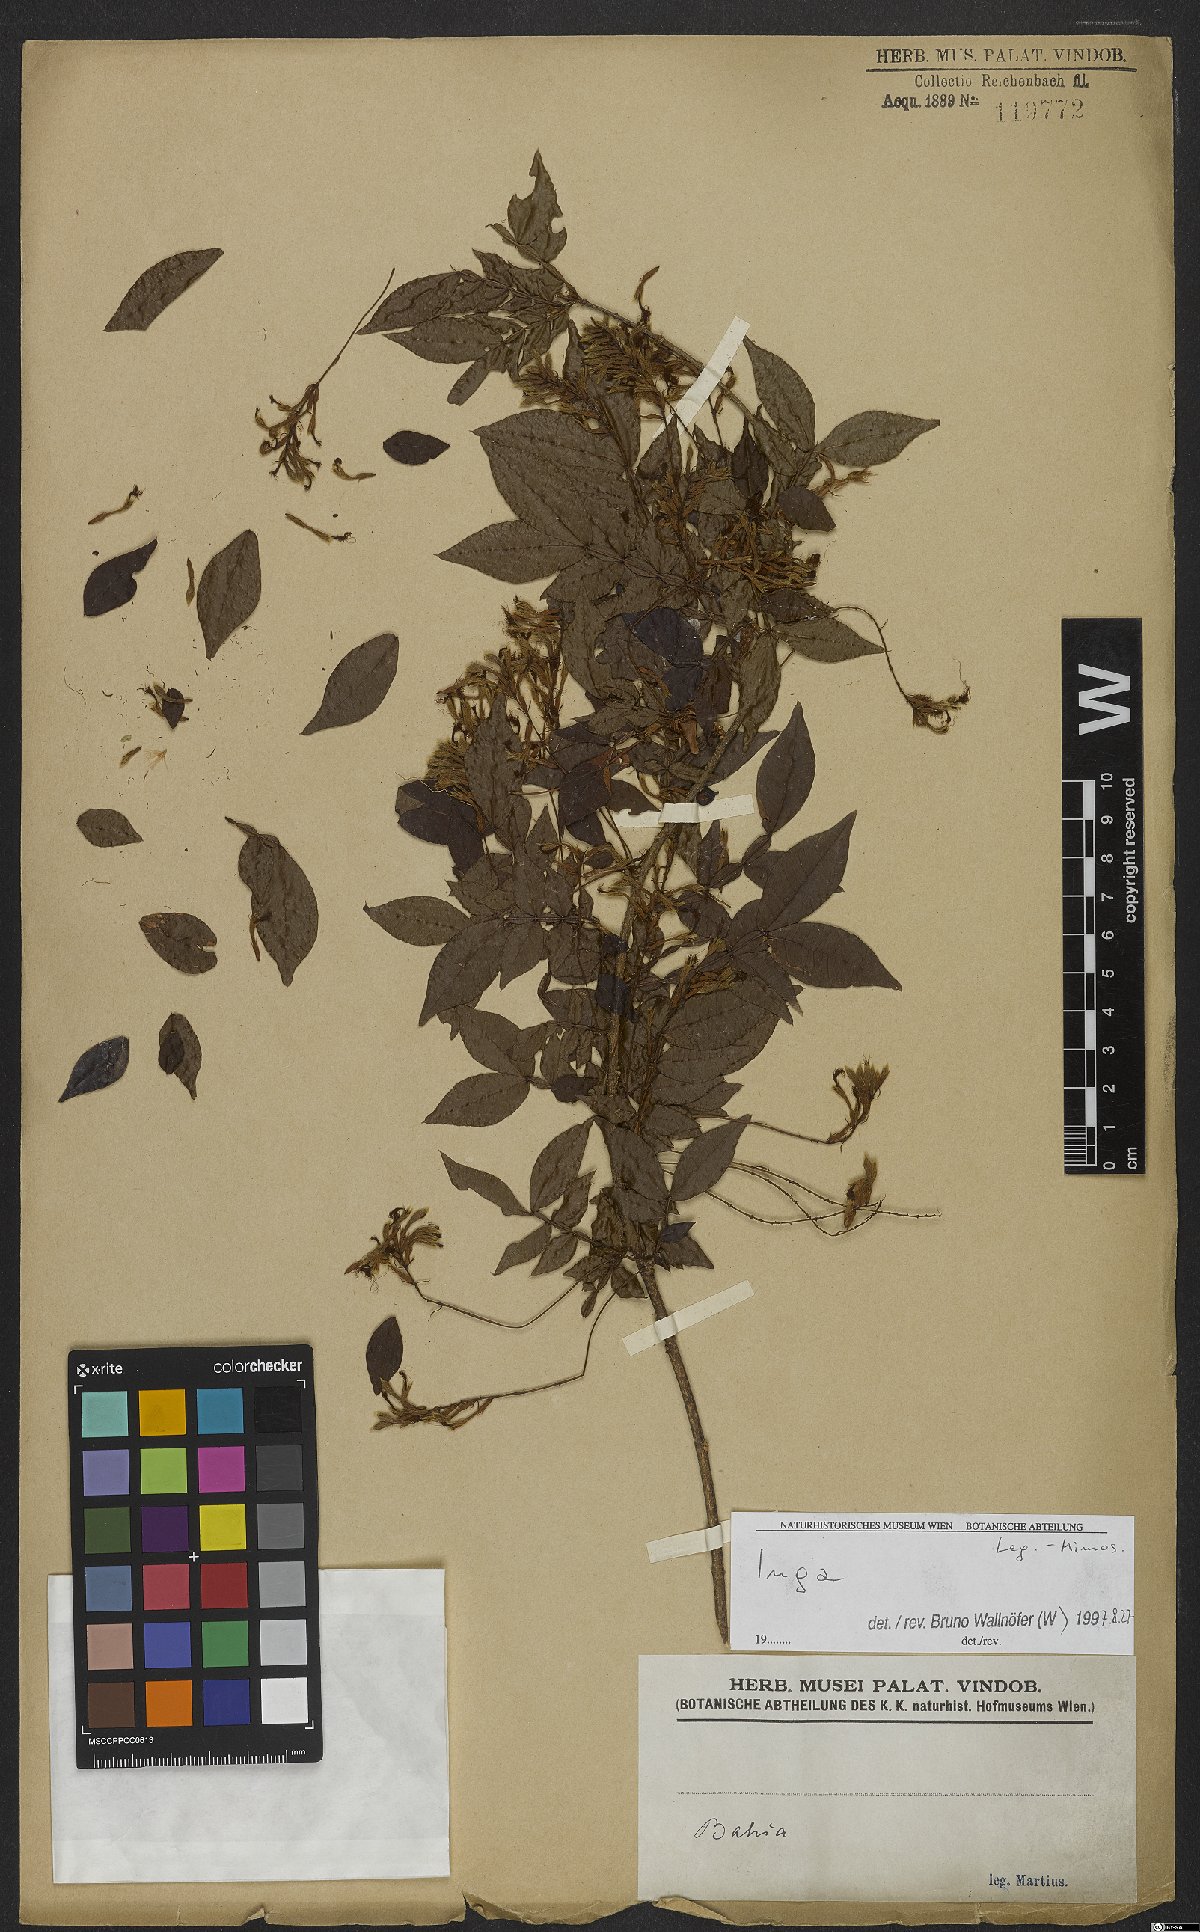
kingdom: Plantae
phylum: Tracheophyta
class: Magnoliopsida
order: Fabales
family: Fabaceae
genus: Inga
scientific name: Inga
